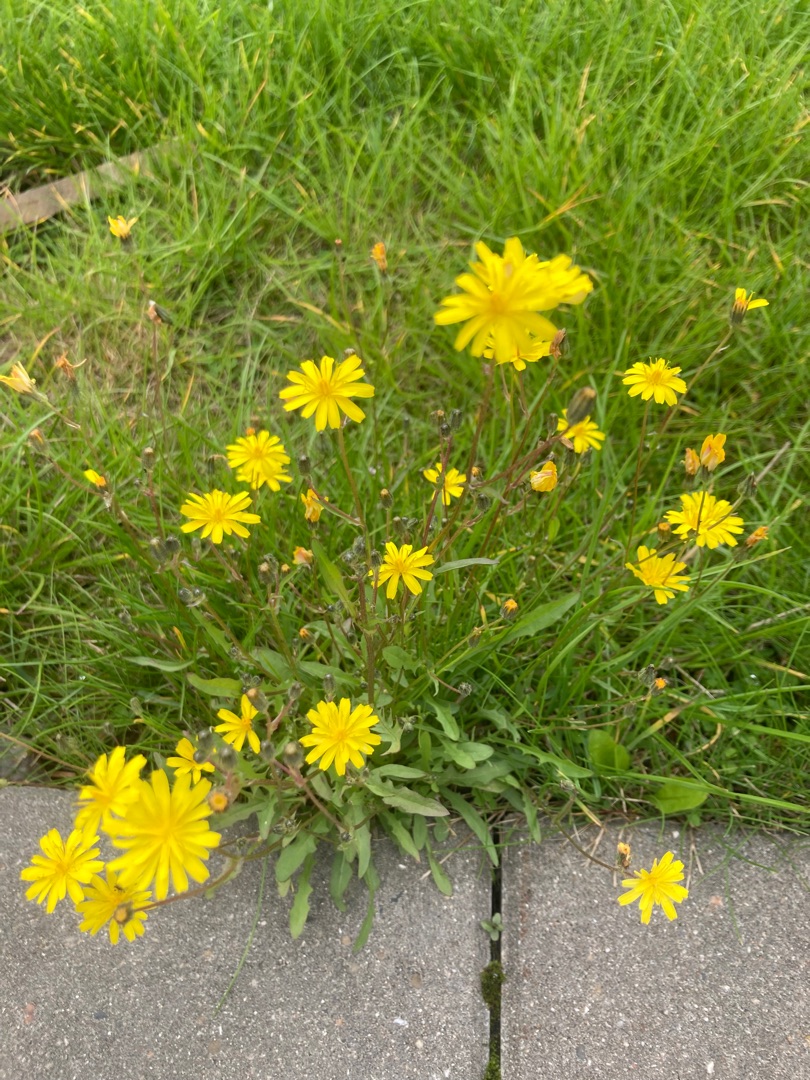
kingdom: Plantae
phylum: Tracheophyta
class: Magnoliopsida
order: Asterales
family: Asteraceae
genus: Crepis
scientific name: Crepis capillaris
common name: Grøn høgeskæg
